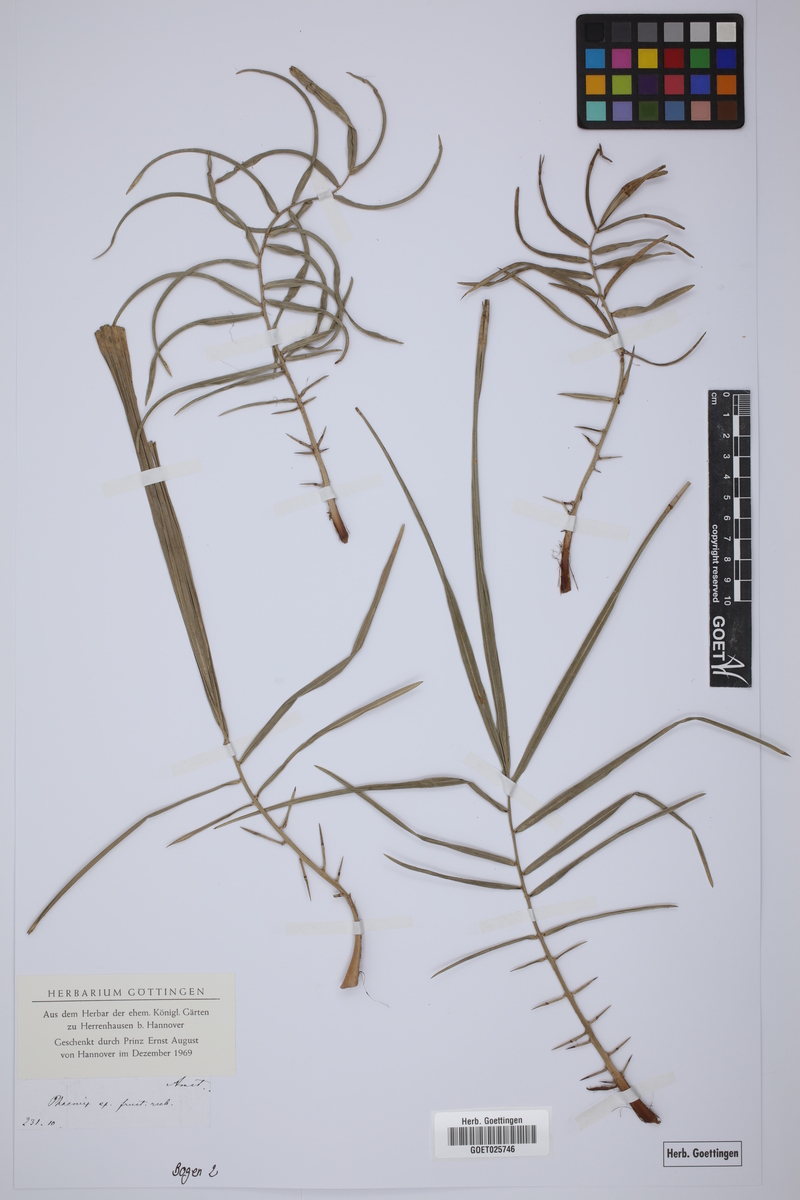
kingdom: Plantae
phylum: Tracheophyta
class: Liliopsida
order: Arecales
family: Arecaceae
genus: Phoenix
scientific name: Phoenix
